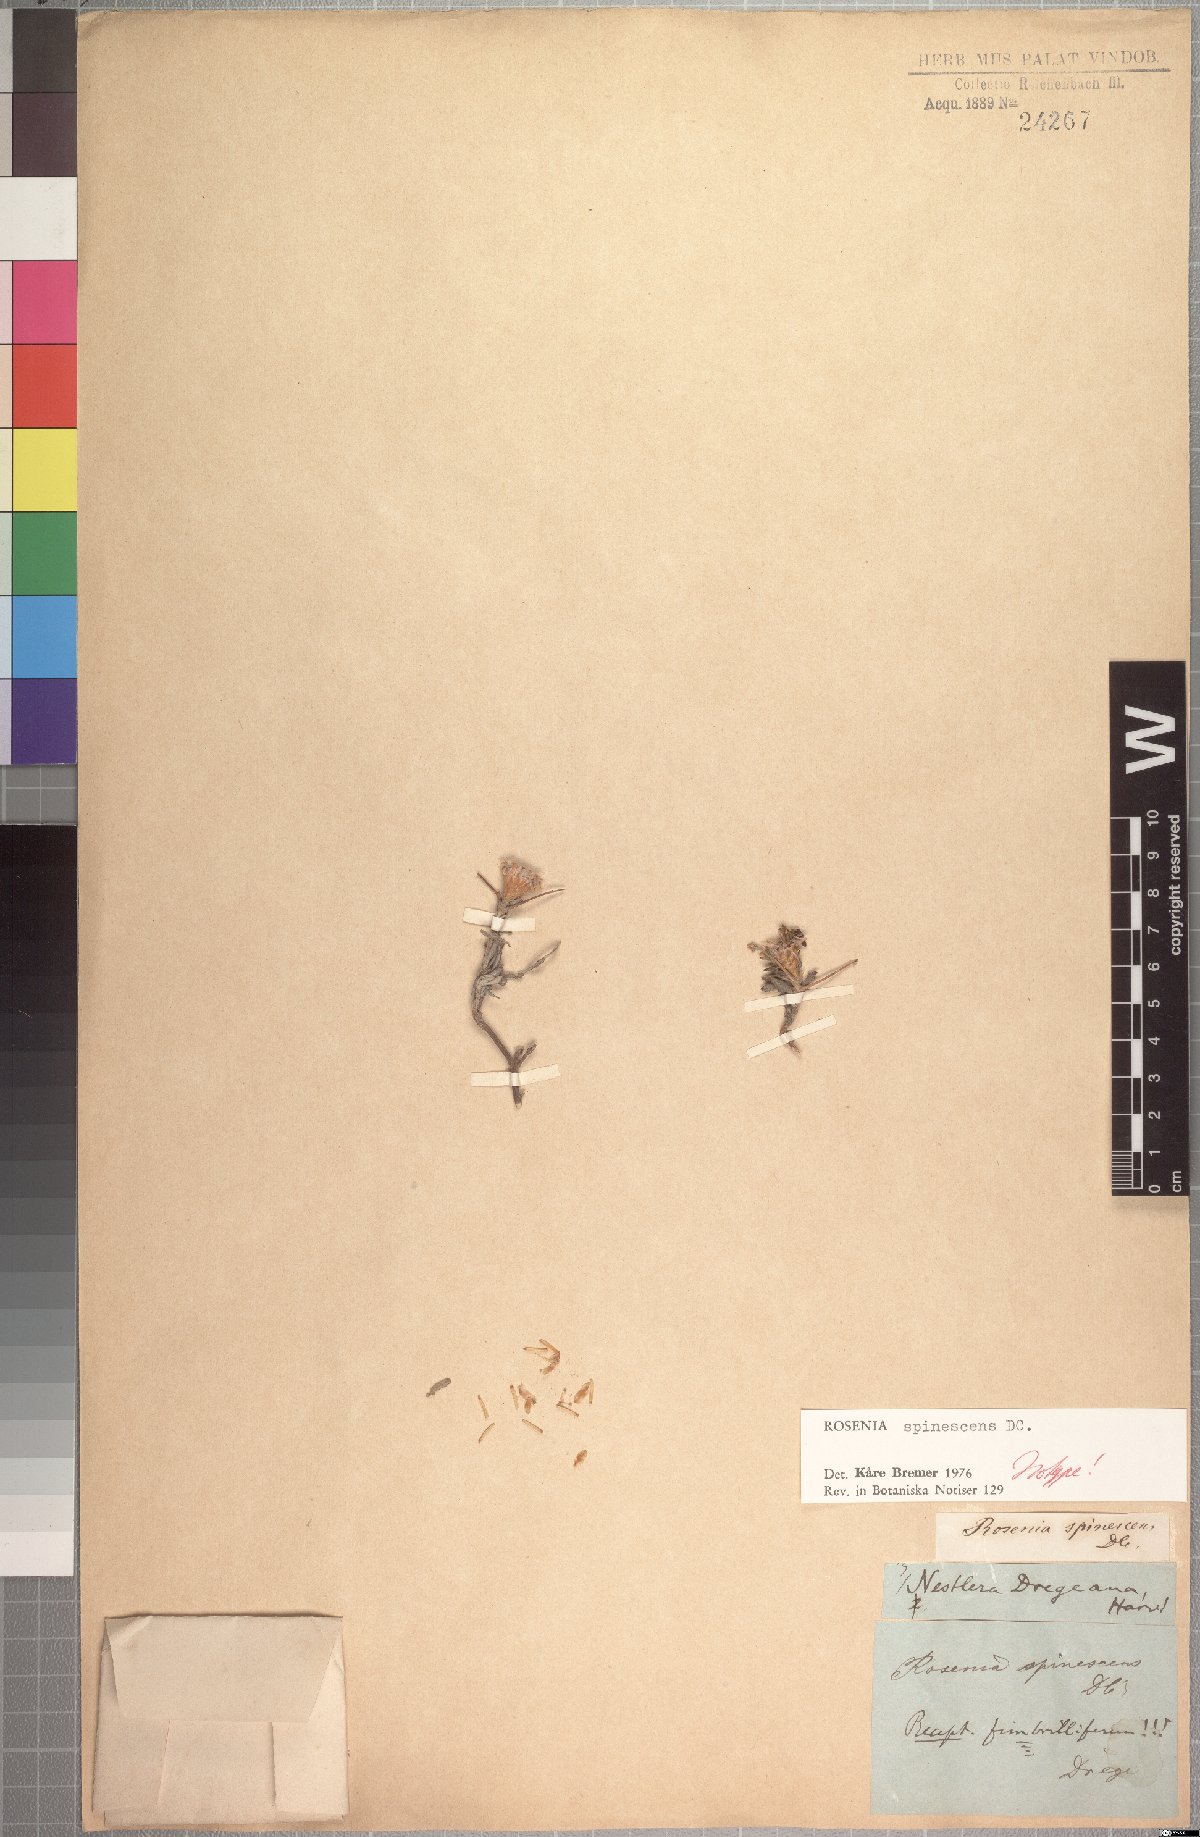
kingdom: Plantae
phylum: Tracheophyta
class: Magnoliopsida
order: Asterales
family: Asteraceae
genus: Oedera
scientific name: Oedera spinescens
